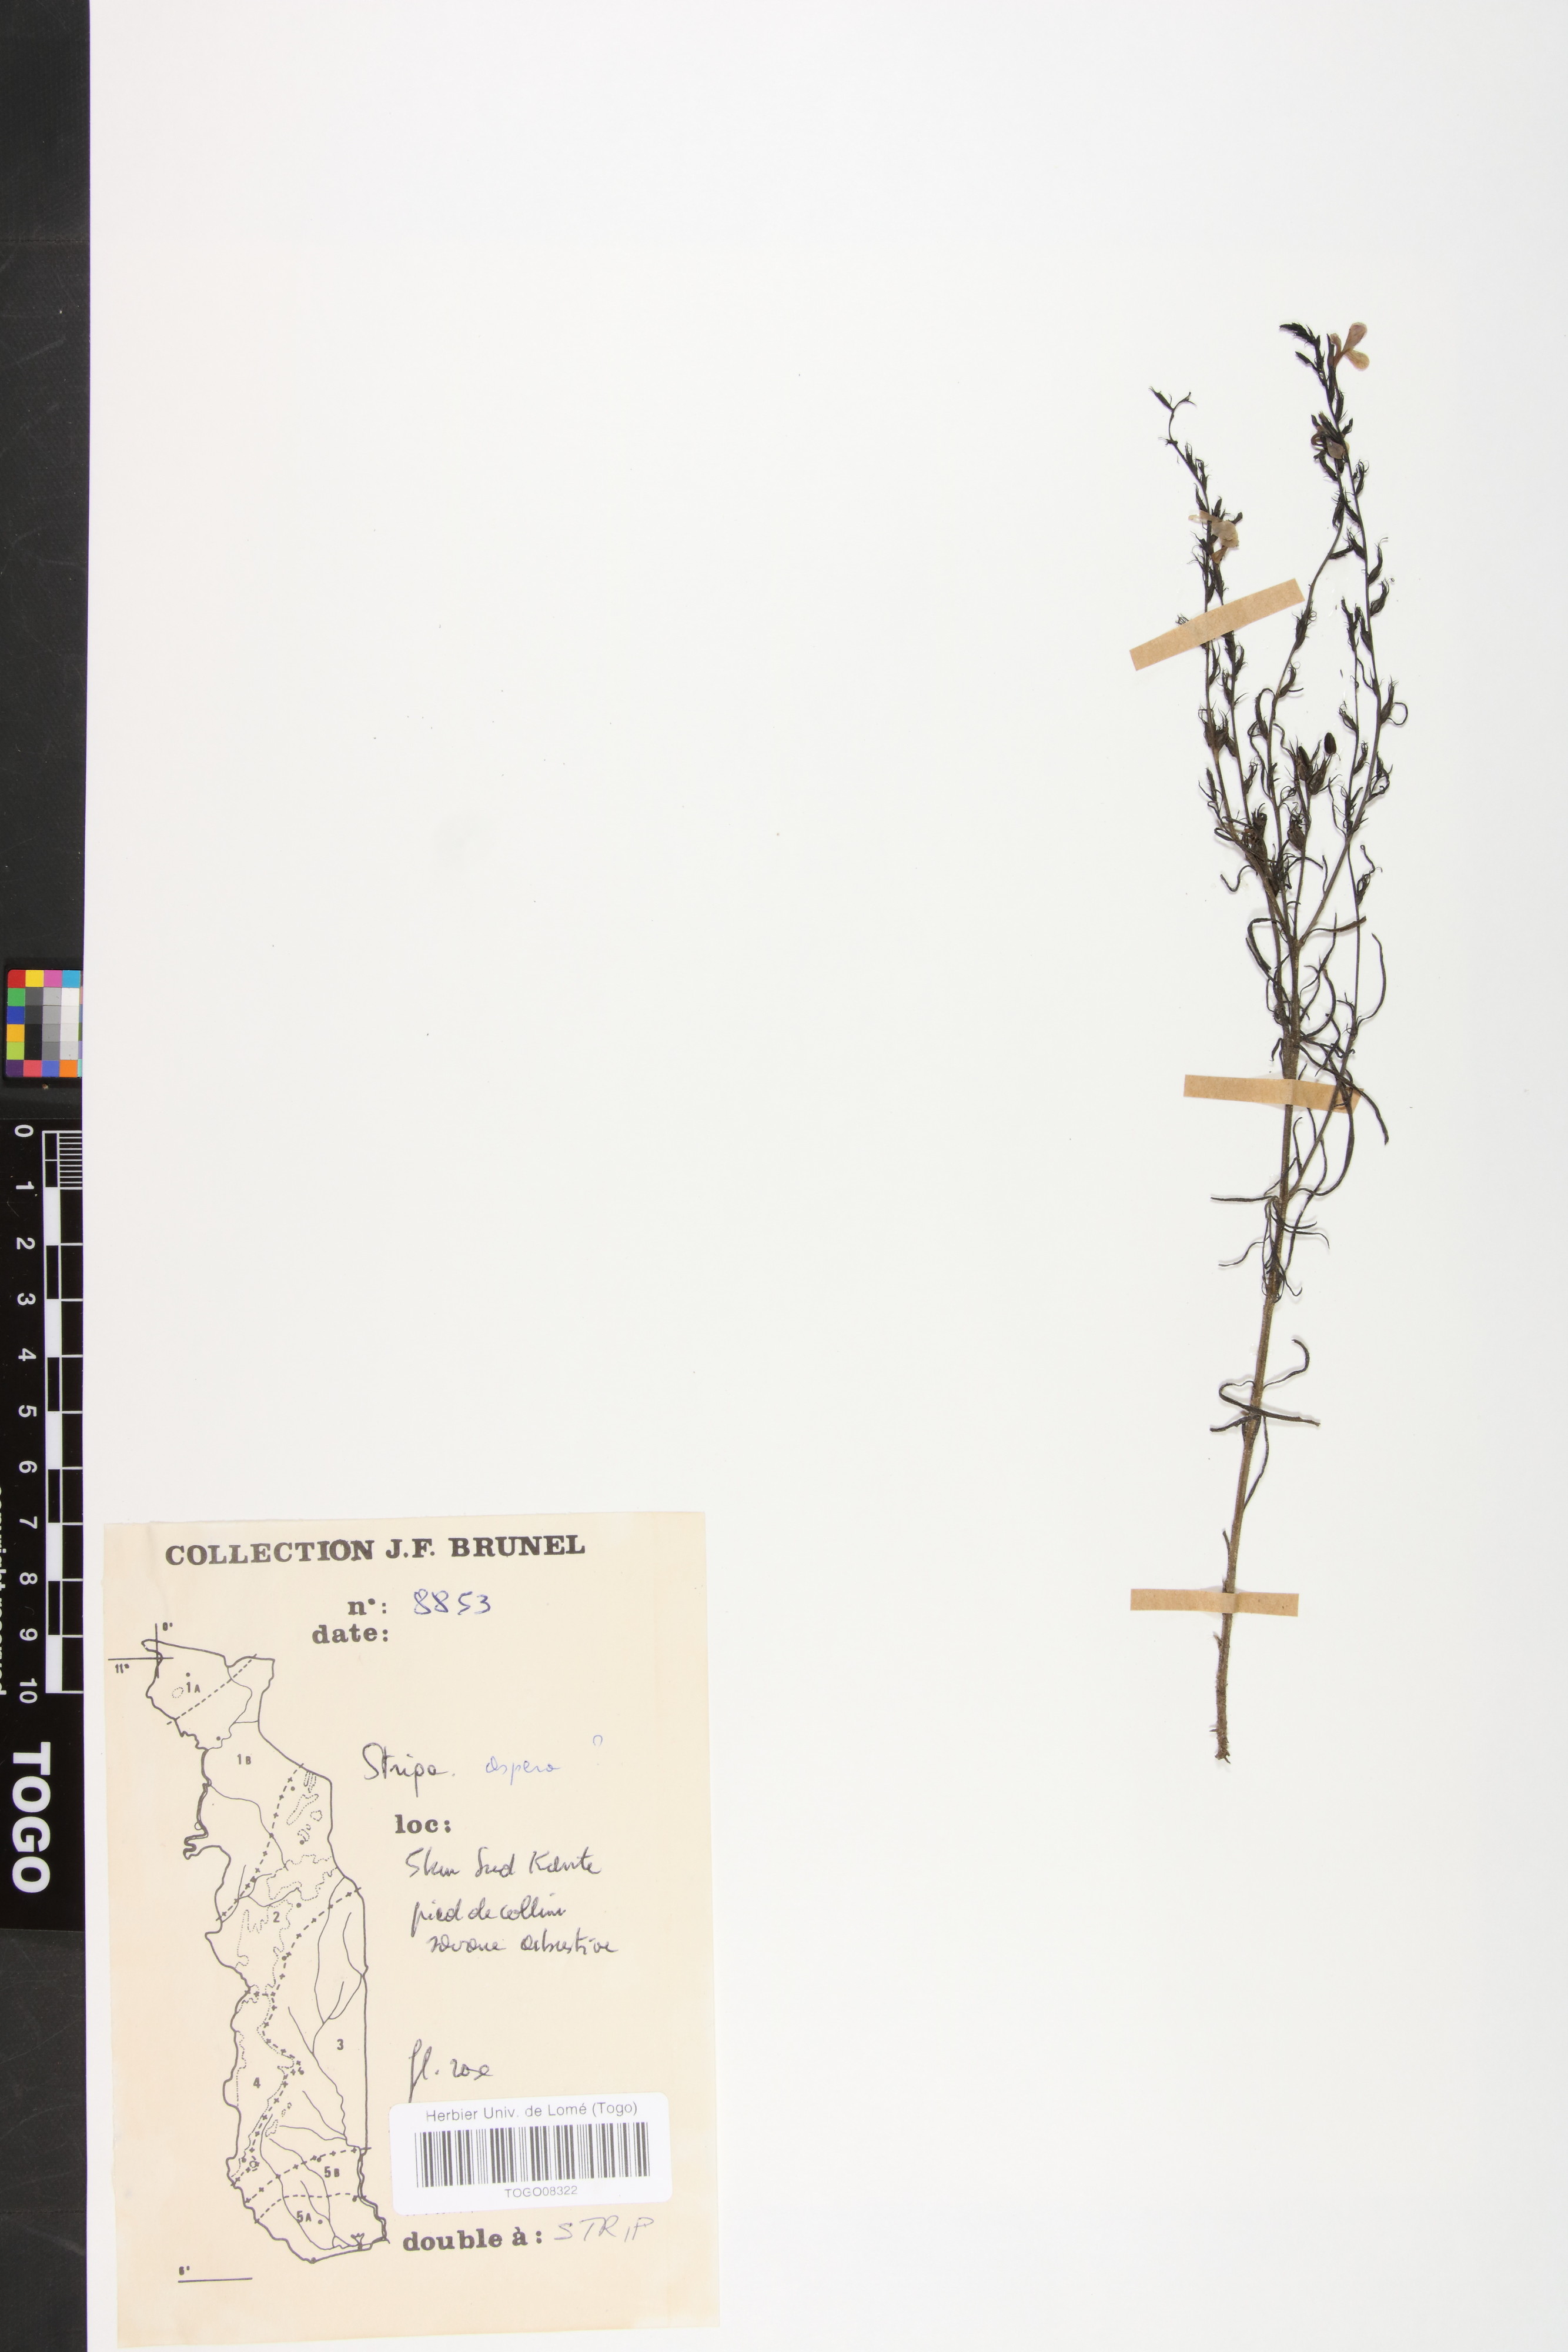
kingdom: Plantae
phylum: Tracheophyta
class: Magnoliopsida
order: Lamiales
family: Orobanchaceae
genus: Striga
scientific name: Striga aspera
